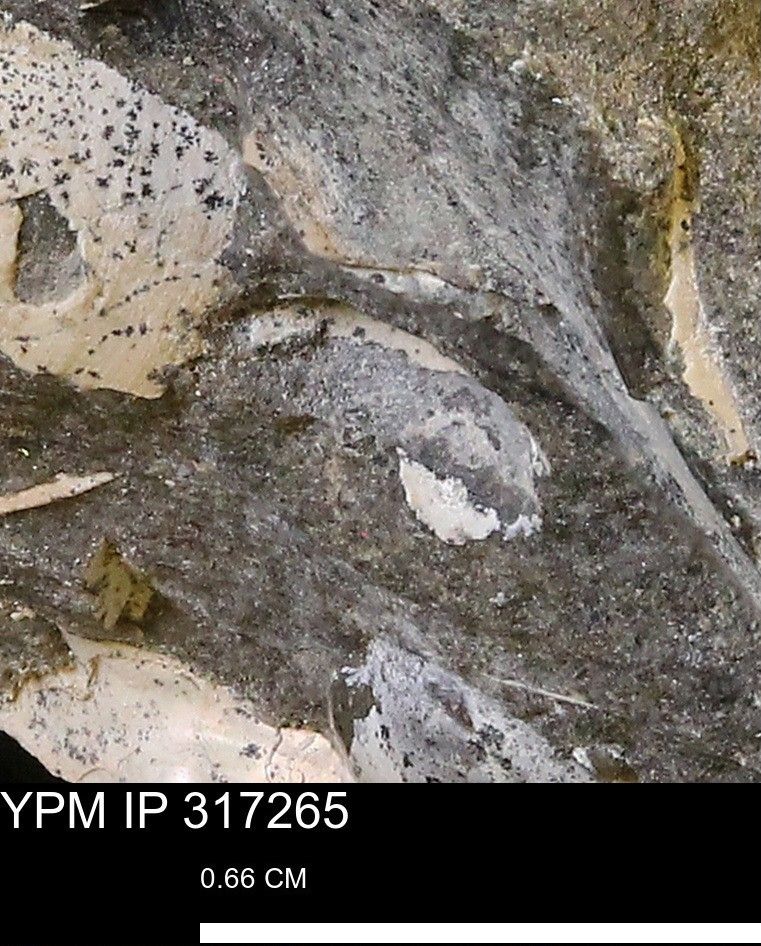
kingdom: Animalia
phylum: Mollusca
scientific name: Mollusca
